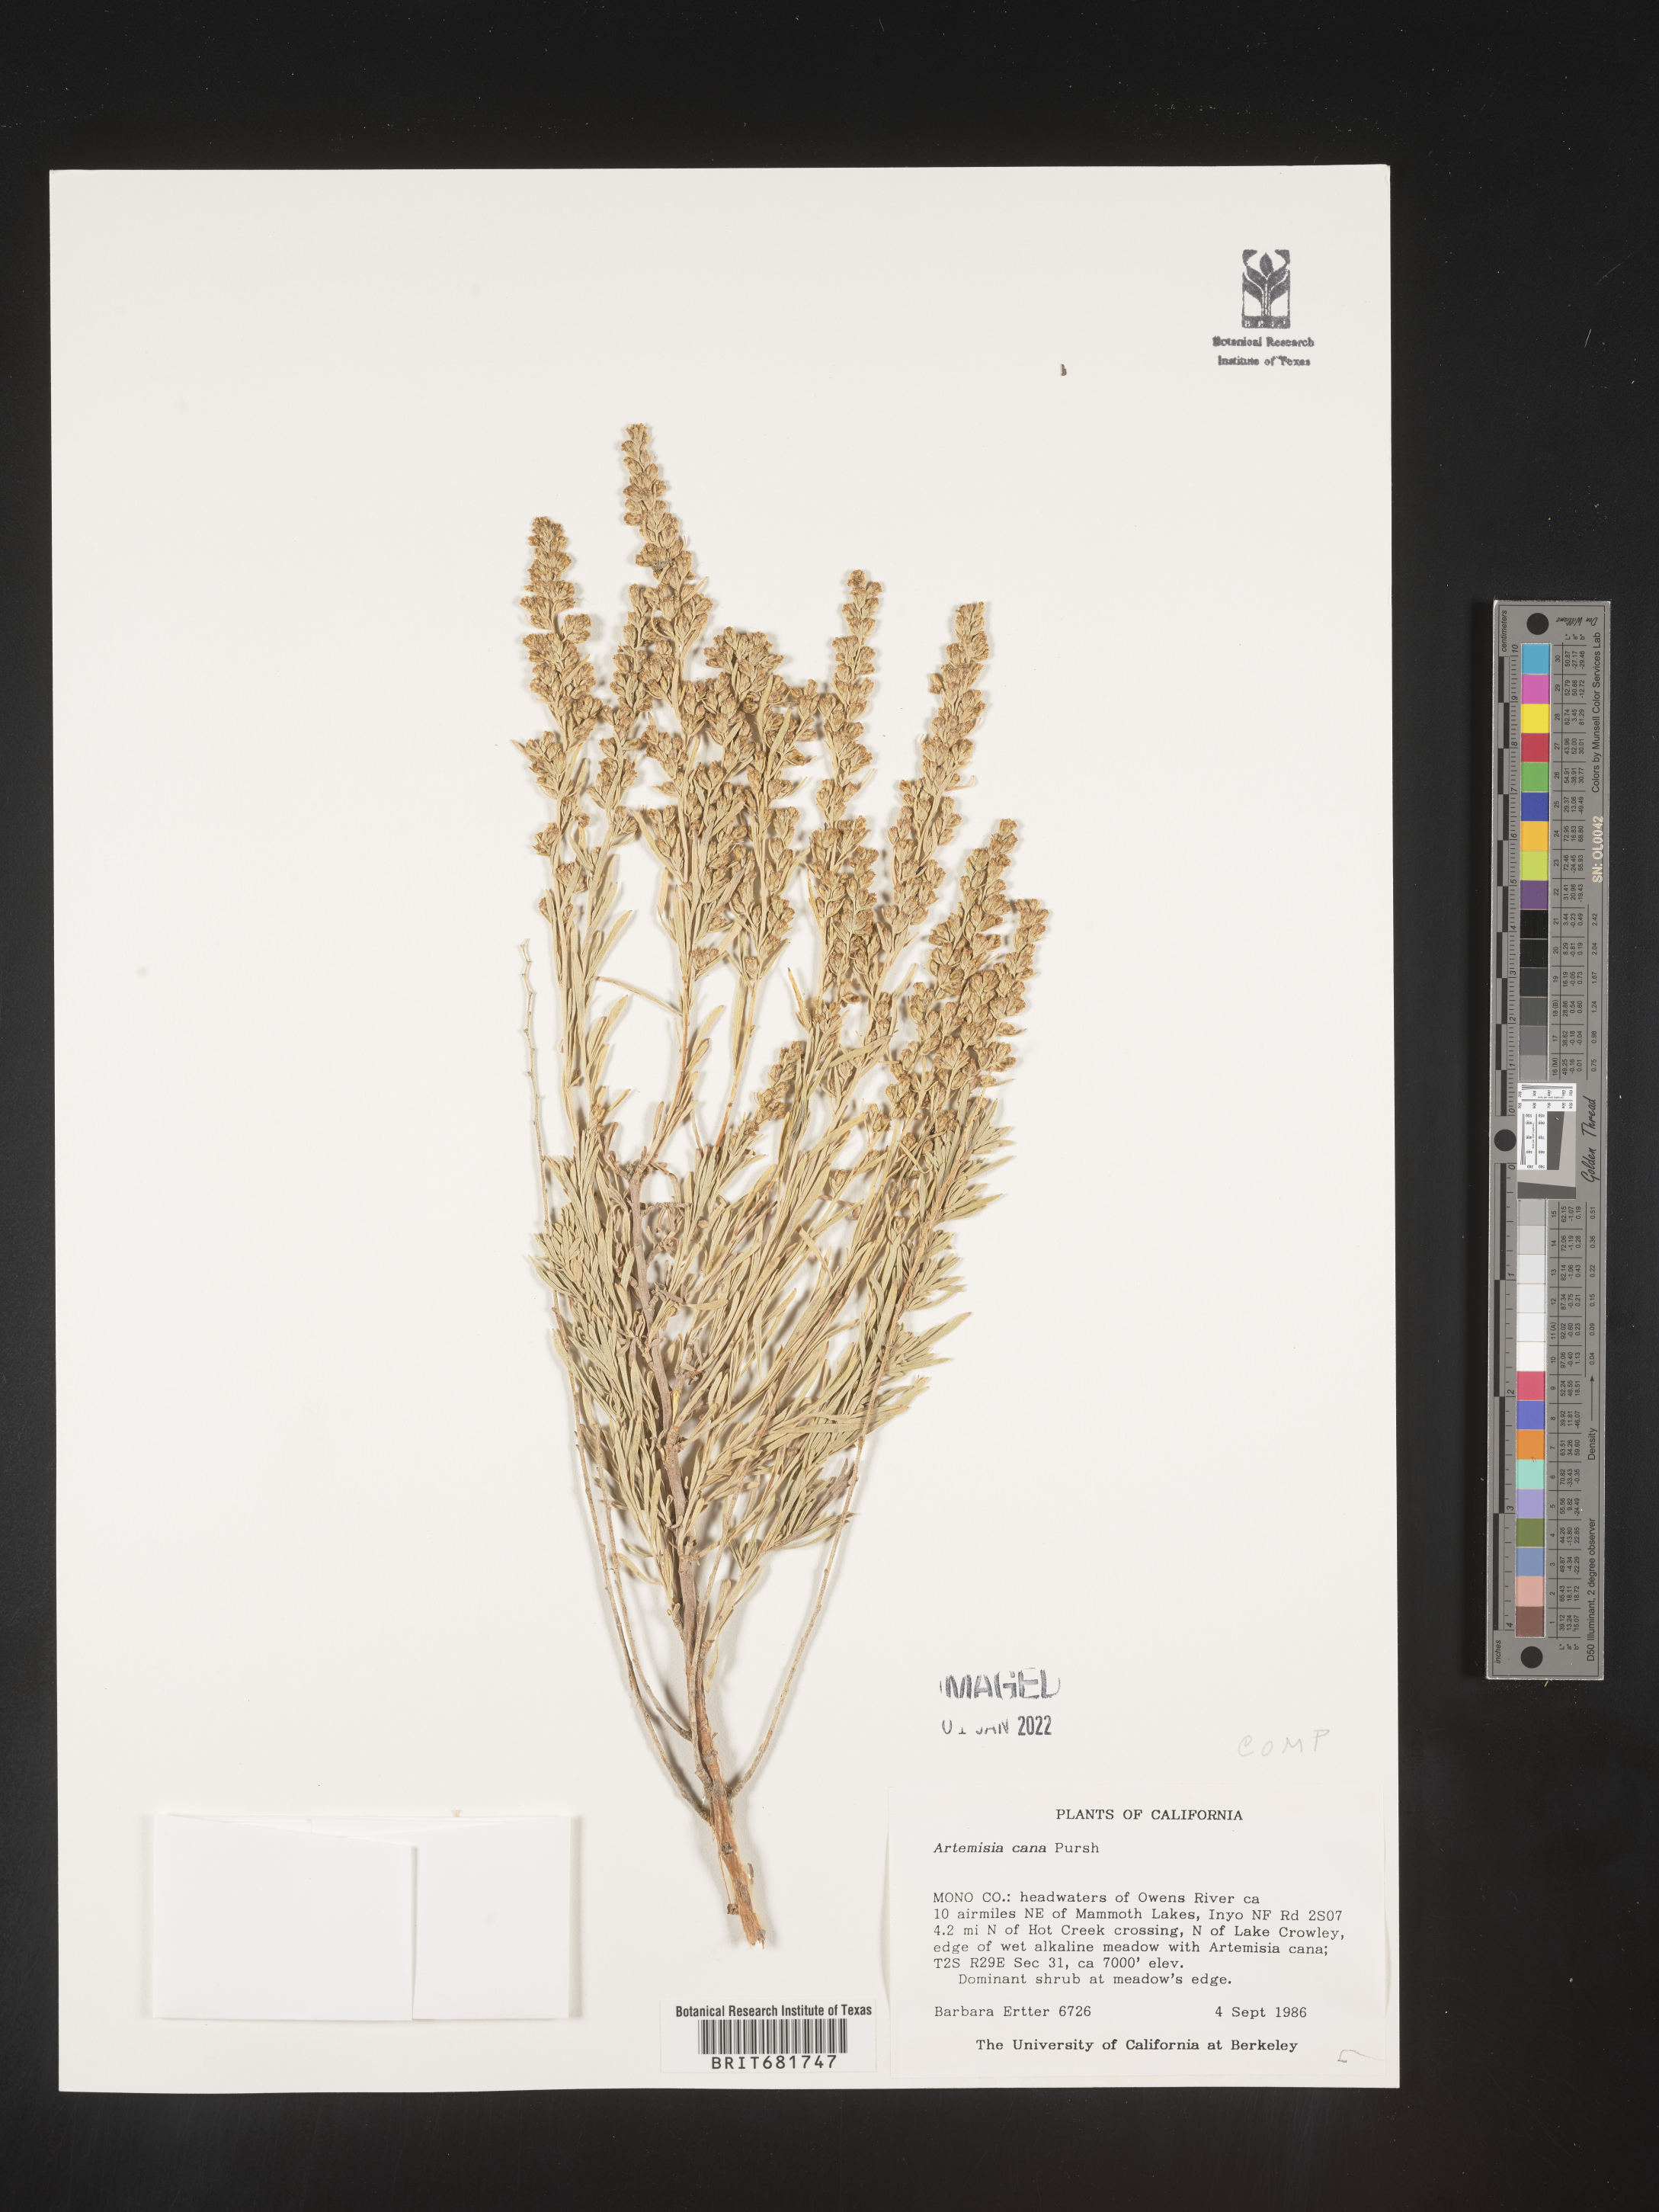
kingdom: Plantae
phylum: Tracheophyta
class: Magnoliopsida
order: Asterales
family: Asteraceae
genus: Artemisia
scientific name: Artemisia cana
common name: Silver sagebrush
